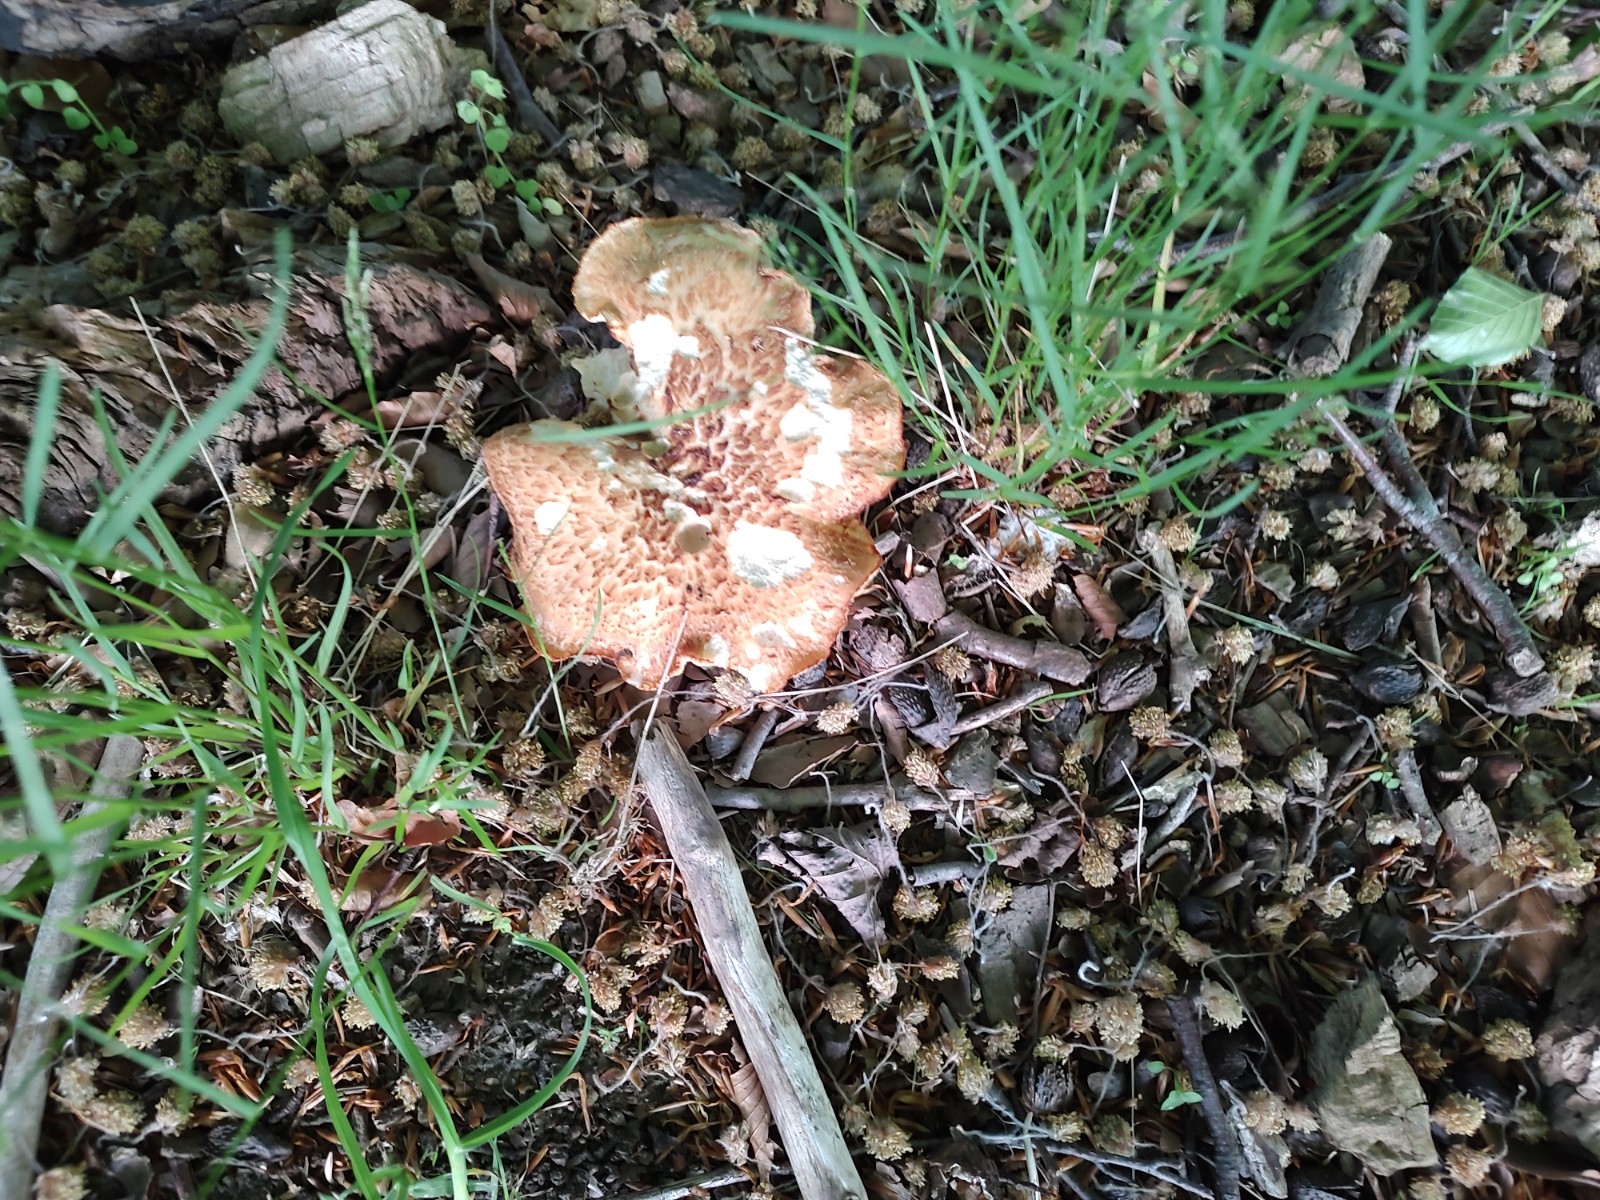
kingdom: Fungi
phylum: Basidiomycota
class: Agaricomycetes
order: Polyporales
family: Polyporaceae
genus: Cerioporus
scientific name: Cerioporus squamosus
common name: skællet stilkporesvamp
